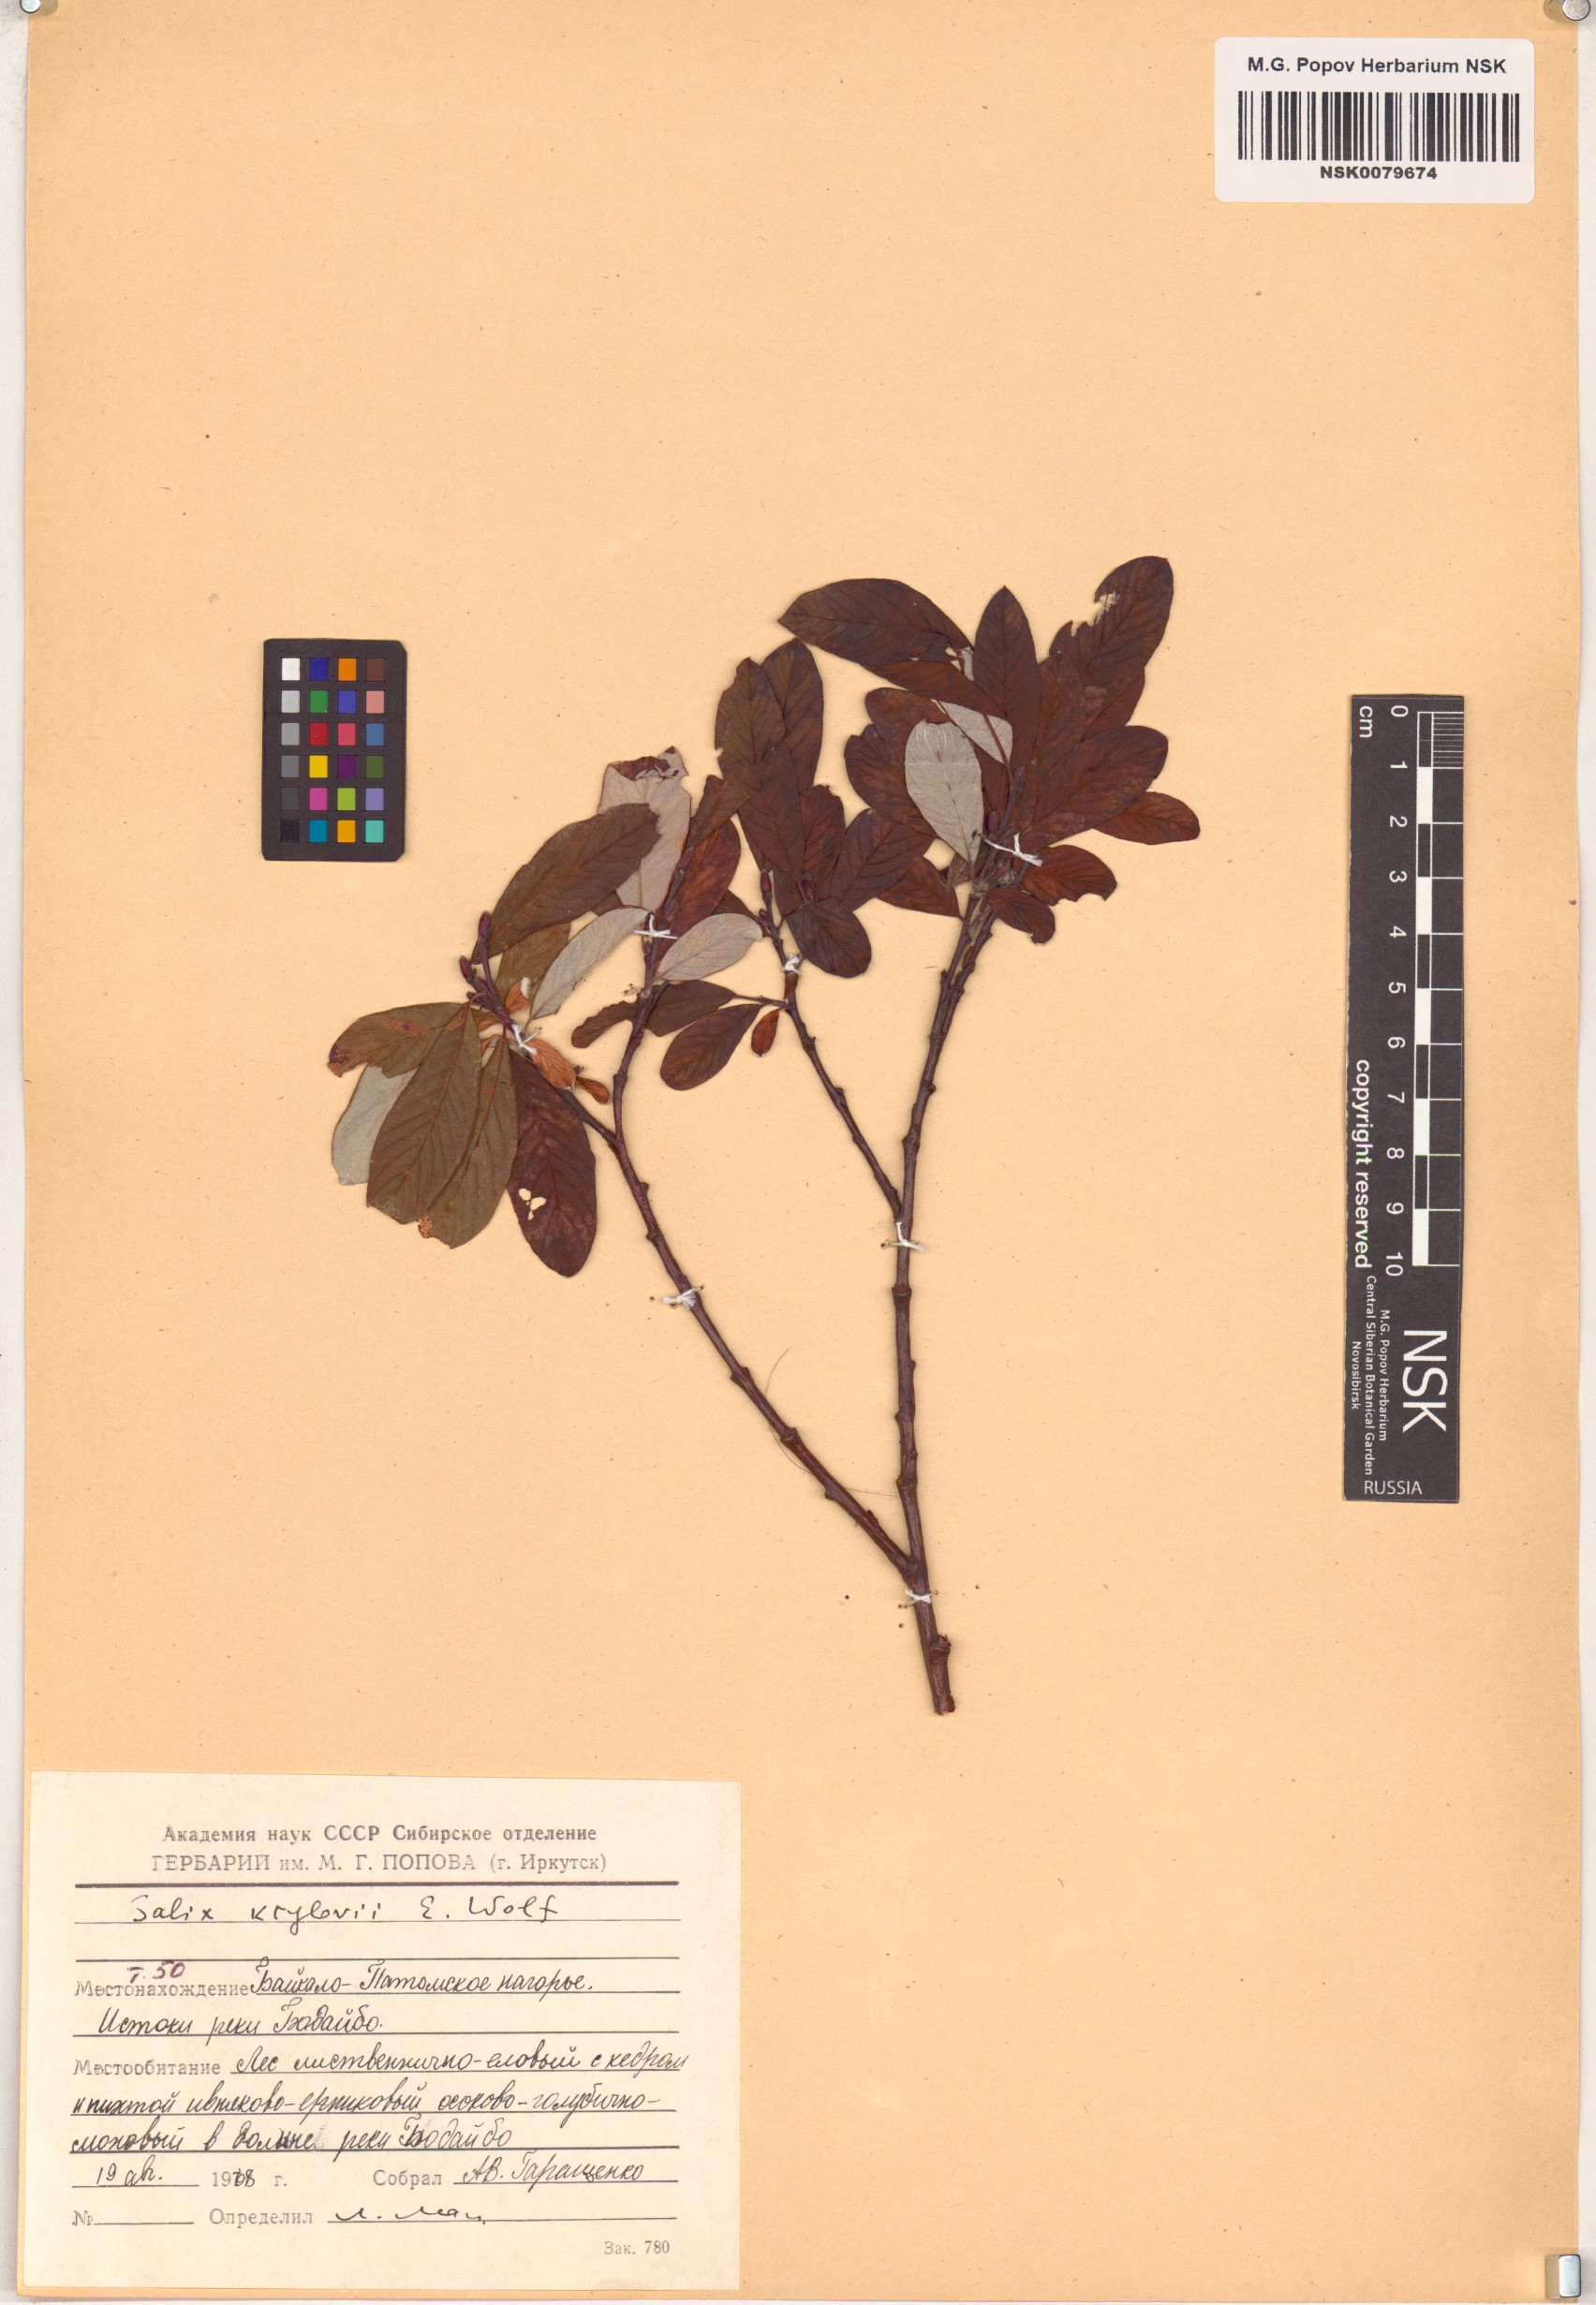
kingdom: Plantae
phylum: Tracheophyta
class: Magnoliopsida
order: Malpighiales
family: Salicaceae
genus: Salix
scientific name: Salix krylovii
